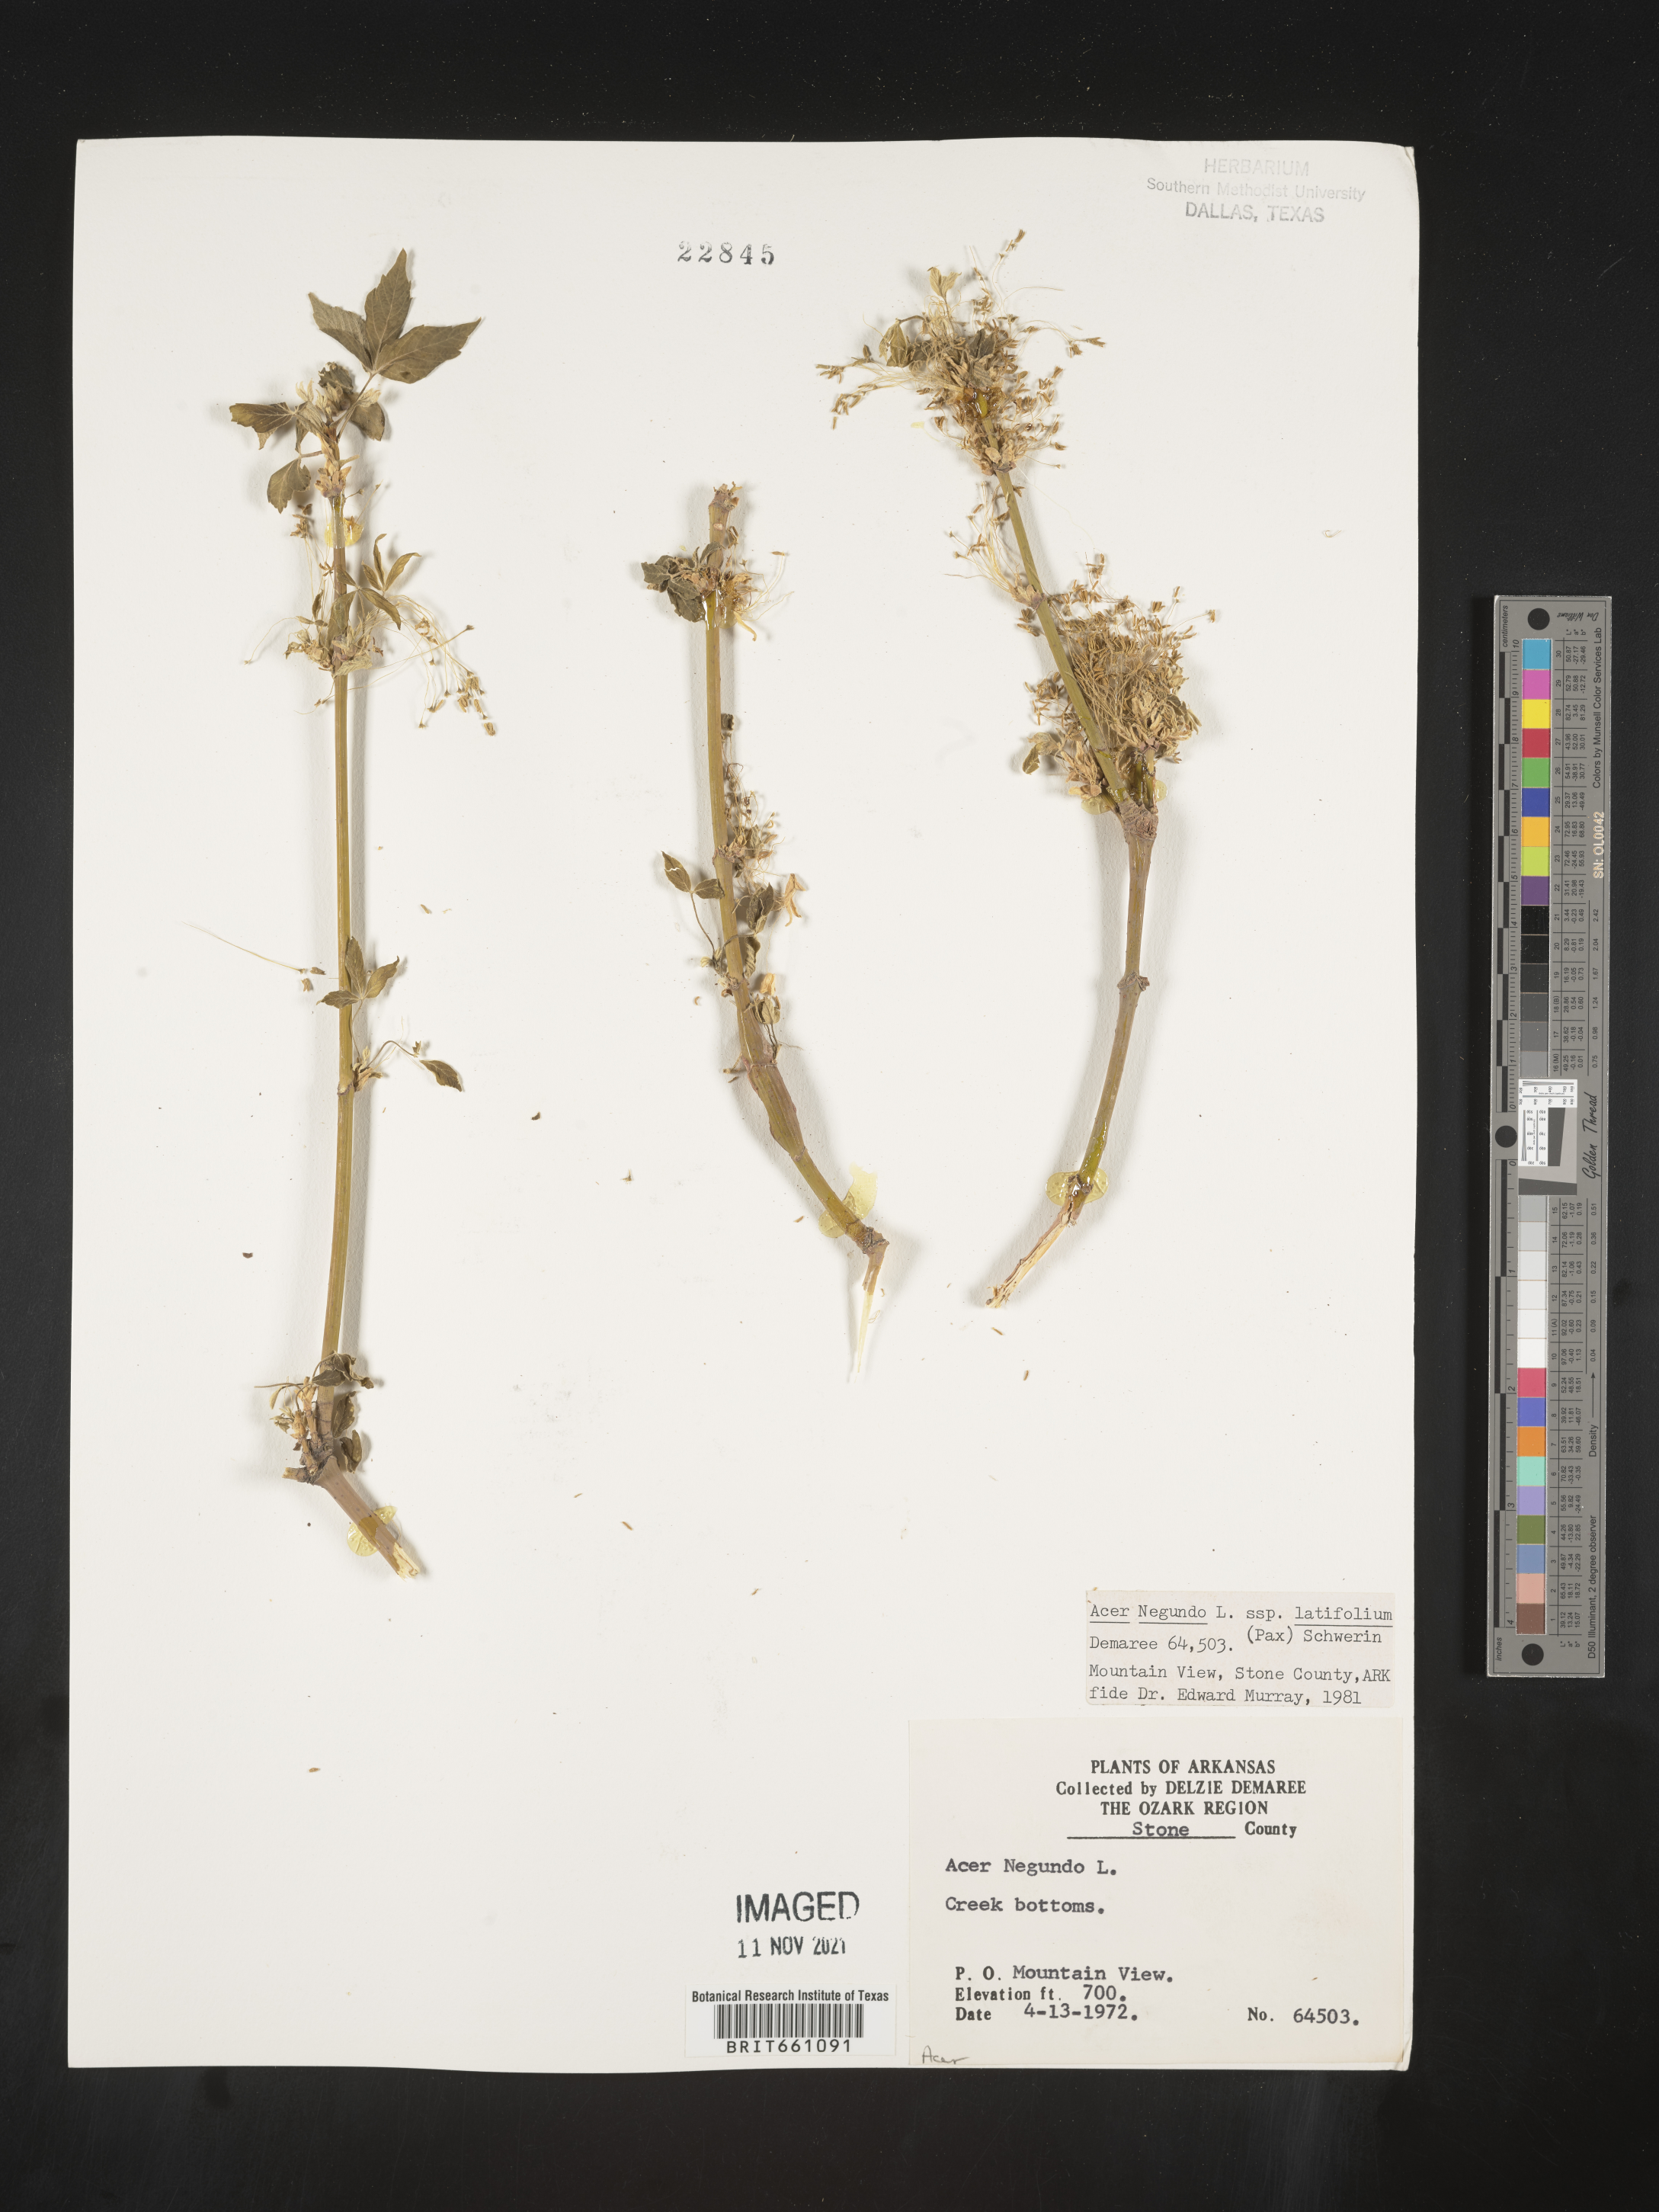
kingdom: Plantae
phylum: Tracheophyta
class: Magnoliopsida
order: Sapindales
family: Sapindaceae
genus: Acer
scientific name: Acer negundo
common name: Ashleaf maple
